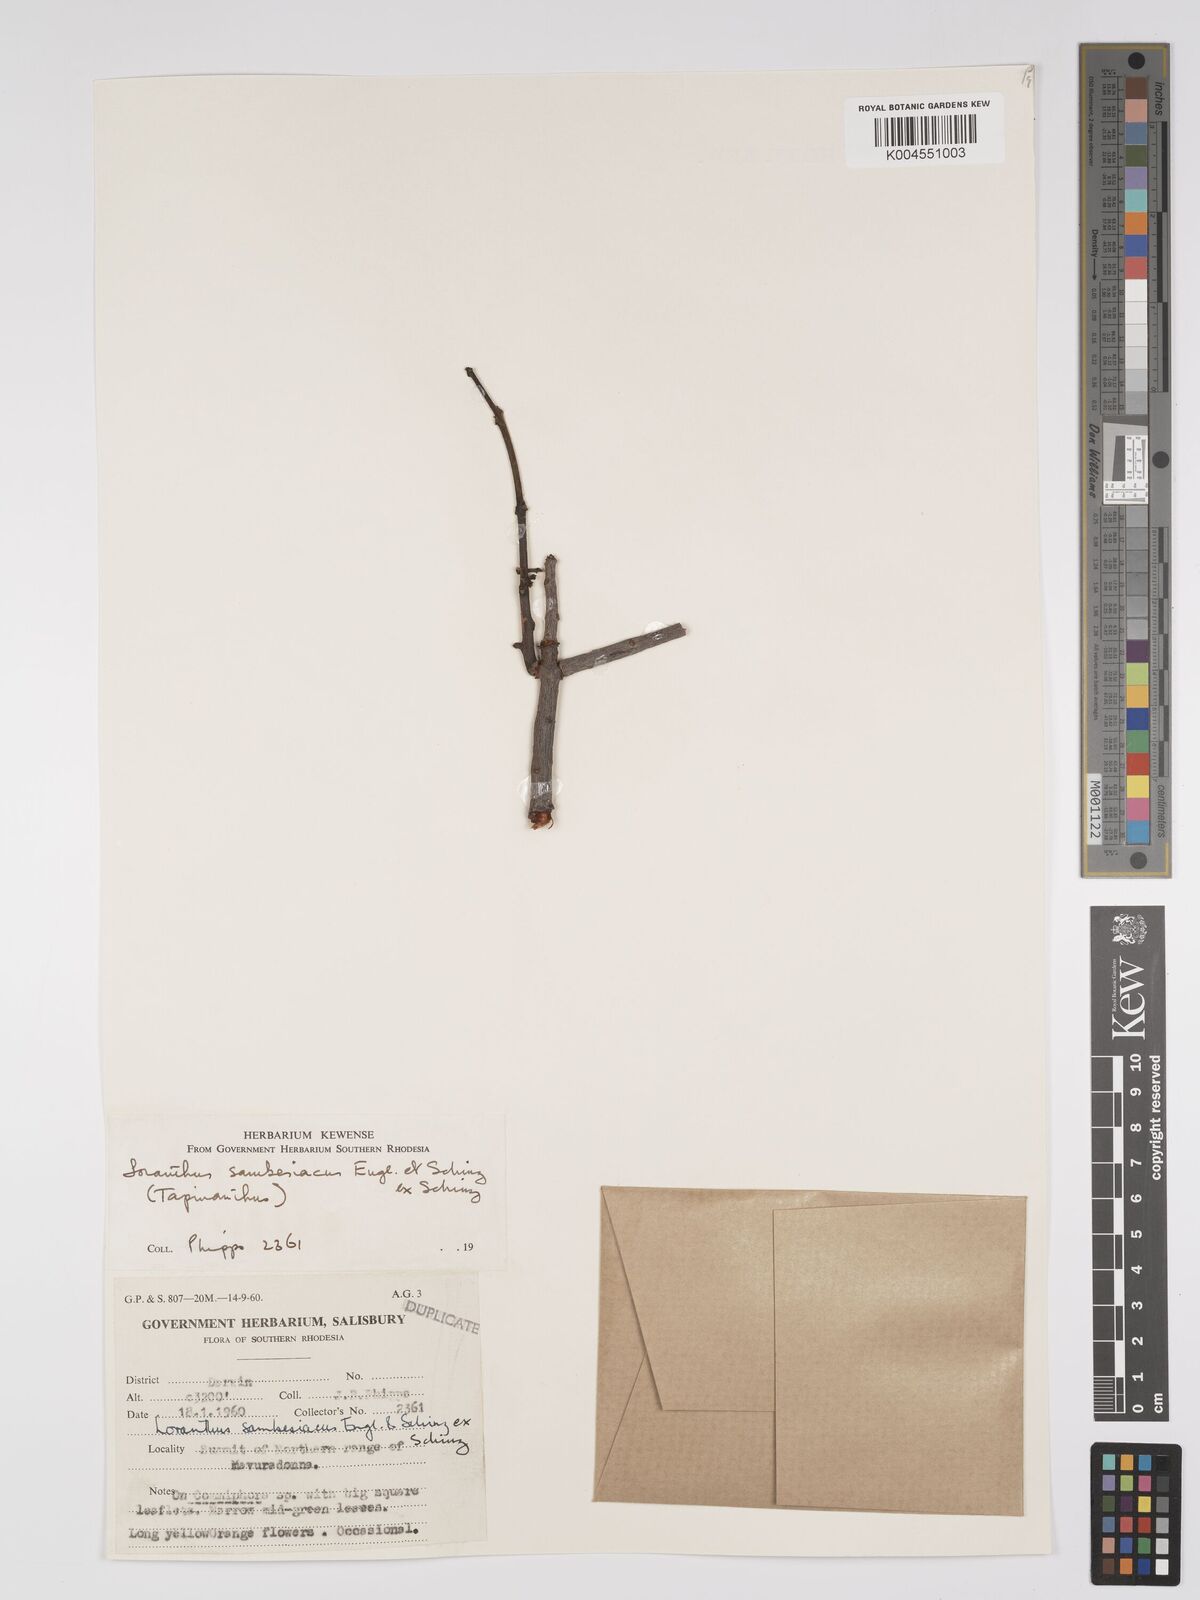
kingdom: Plantae
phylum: Tracheophyta
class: Magnoliopsida
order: Santalales
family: Loranthaceae
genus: Agelanthus
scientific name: Agelanthus sambesiacus
